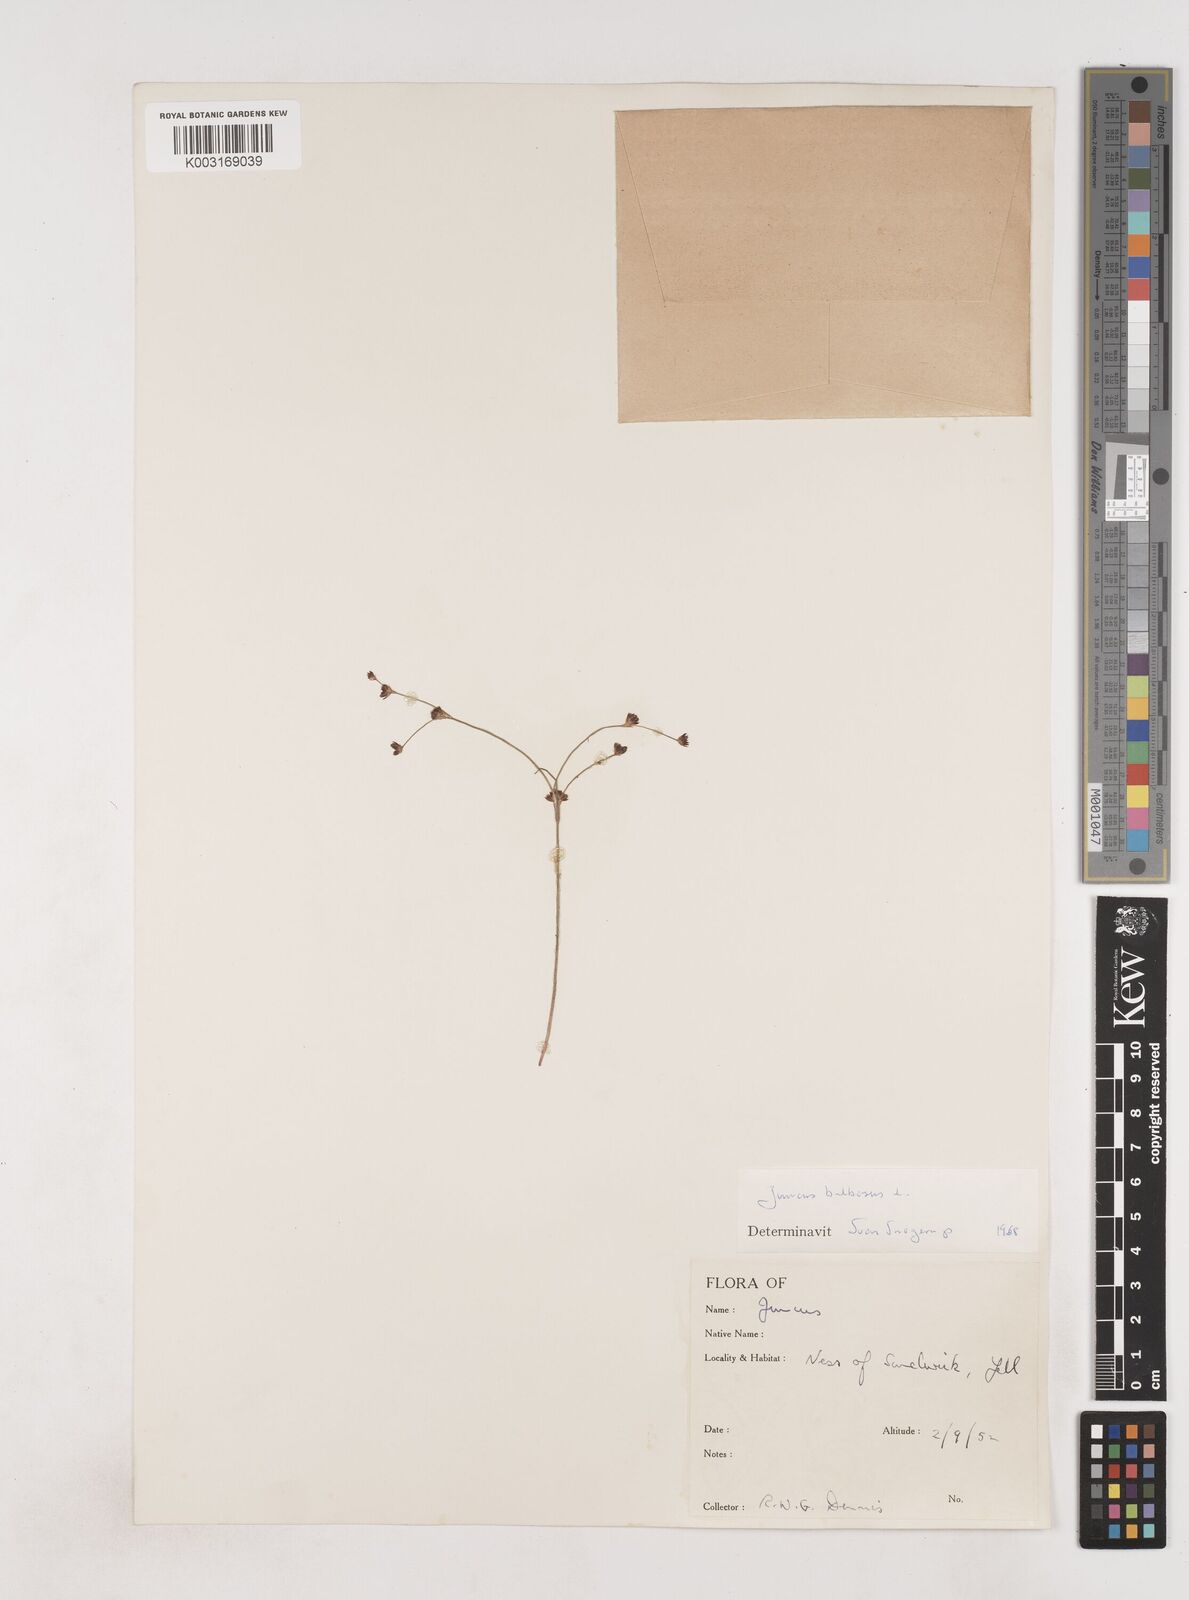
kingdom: Plantae
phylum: Tracheophyta
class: Liliopsida
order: Poales
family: Juncaceae
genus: Juncus
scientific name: Juncus bulbosus
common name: Bulbous rush
